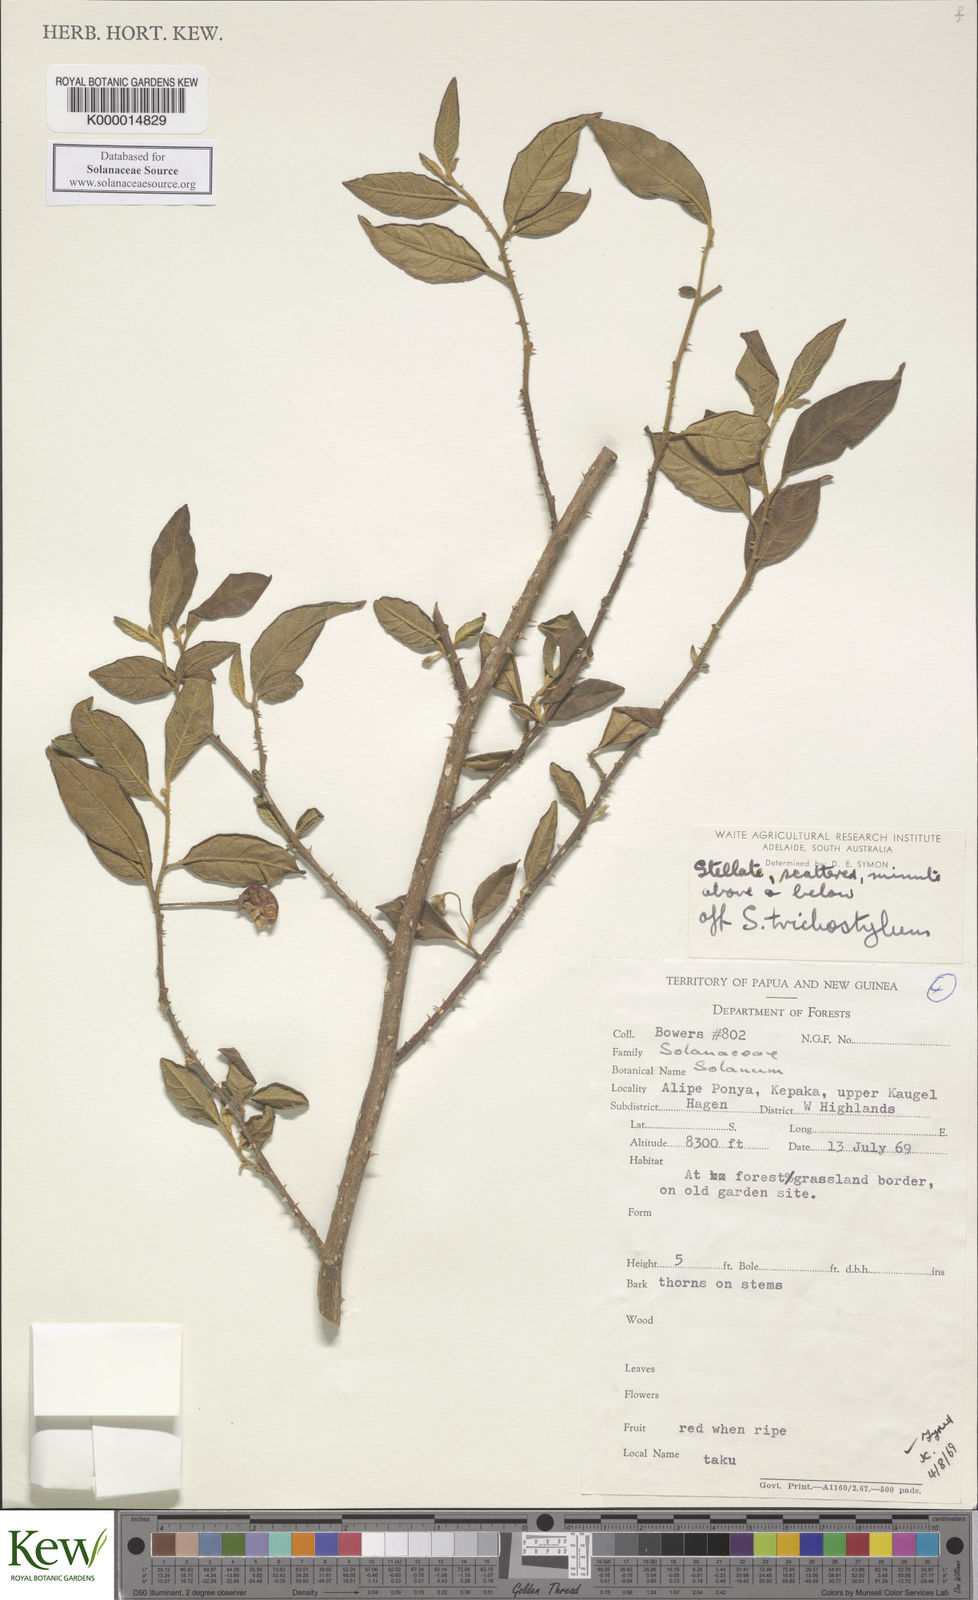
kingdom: Plantae
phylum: Tracheophyta
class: Magnoliopsida
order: Solanales
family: Solanaceae
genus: Solanum
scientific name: Solanum expedunculatum
